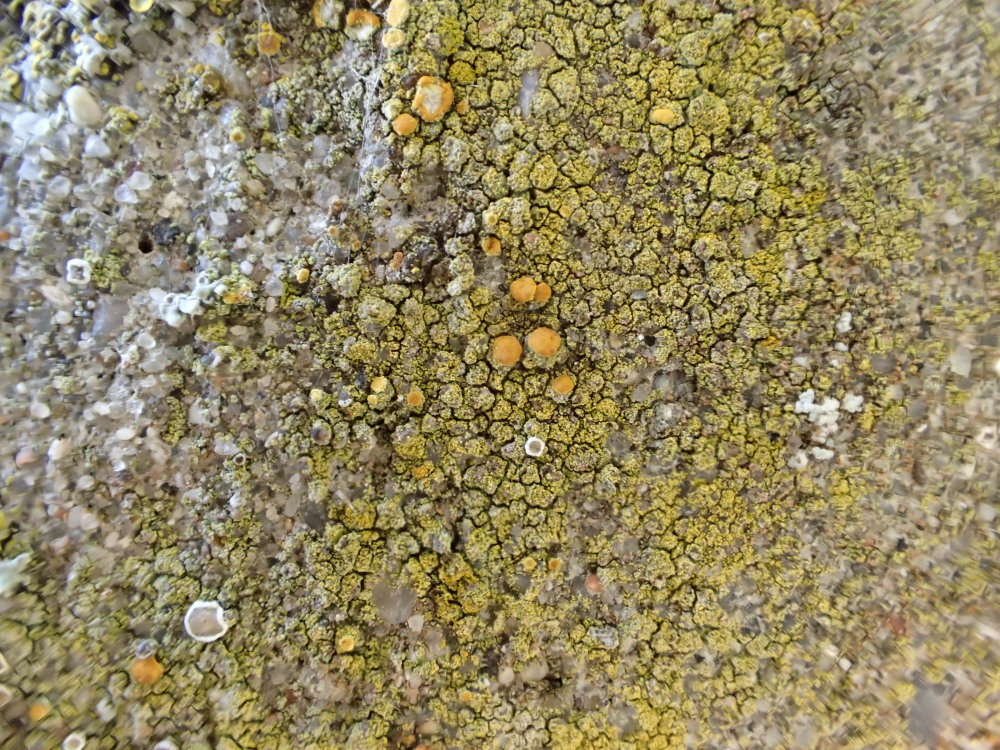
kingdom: Fungi
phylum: Ascomycota
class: Candelariomycetes
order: Candelariales
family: Candelariaceae
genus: Candelariella
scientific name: Candelariella vitellina
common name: almindelig æggeblommelav
